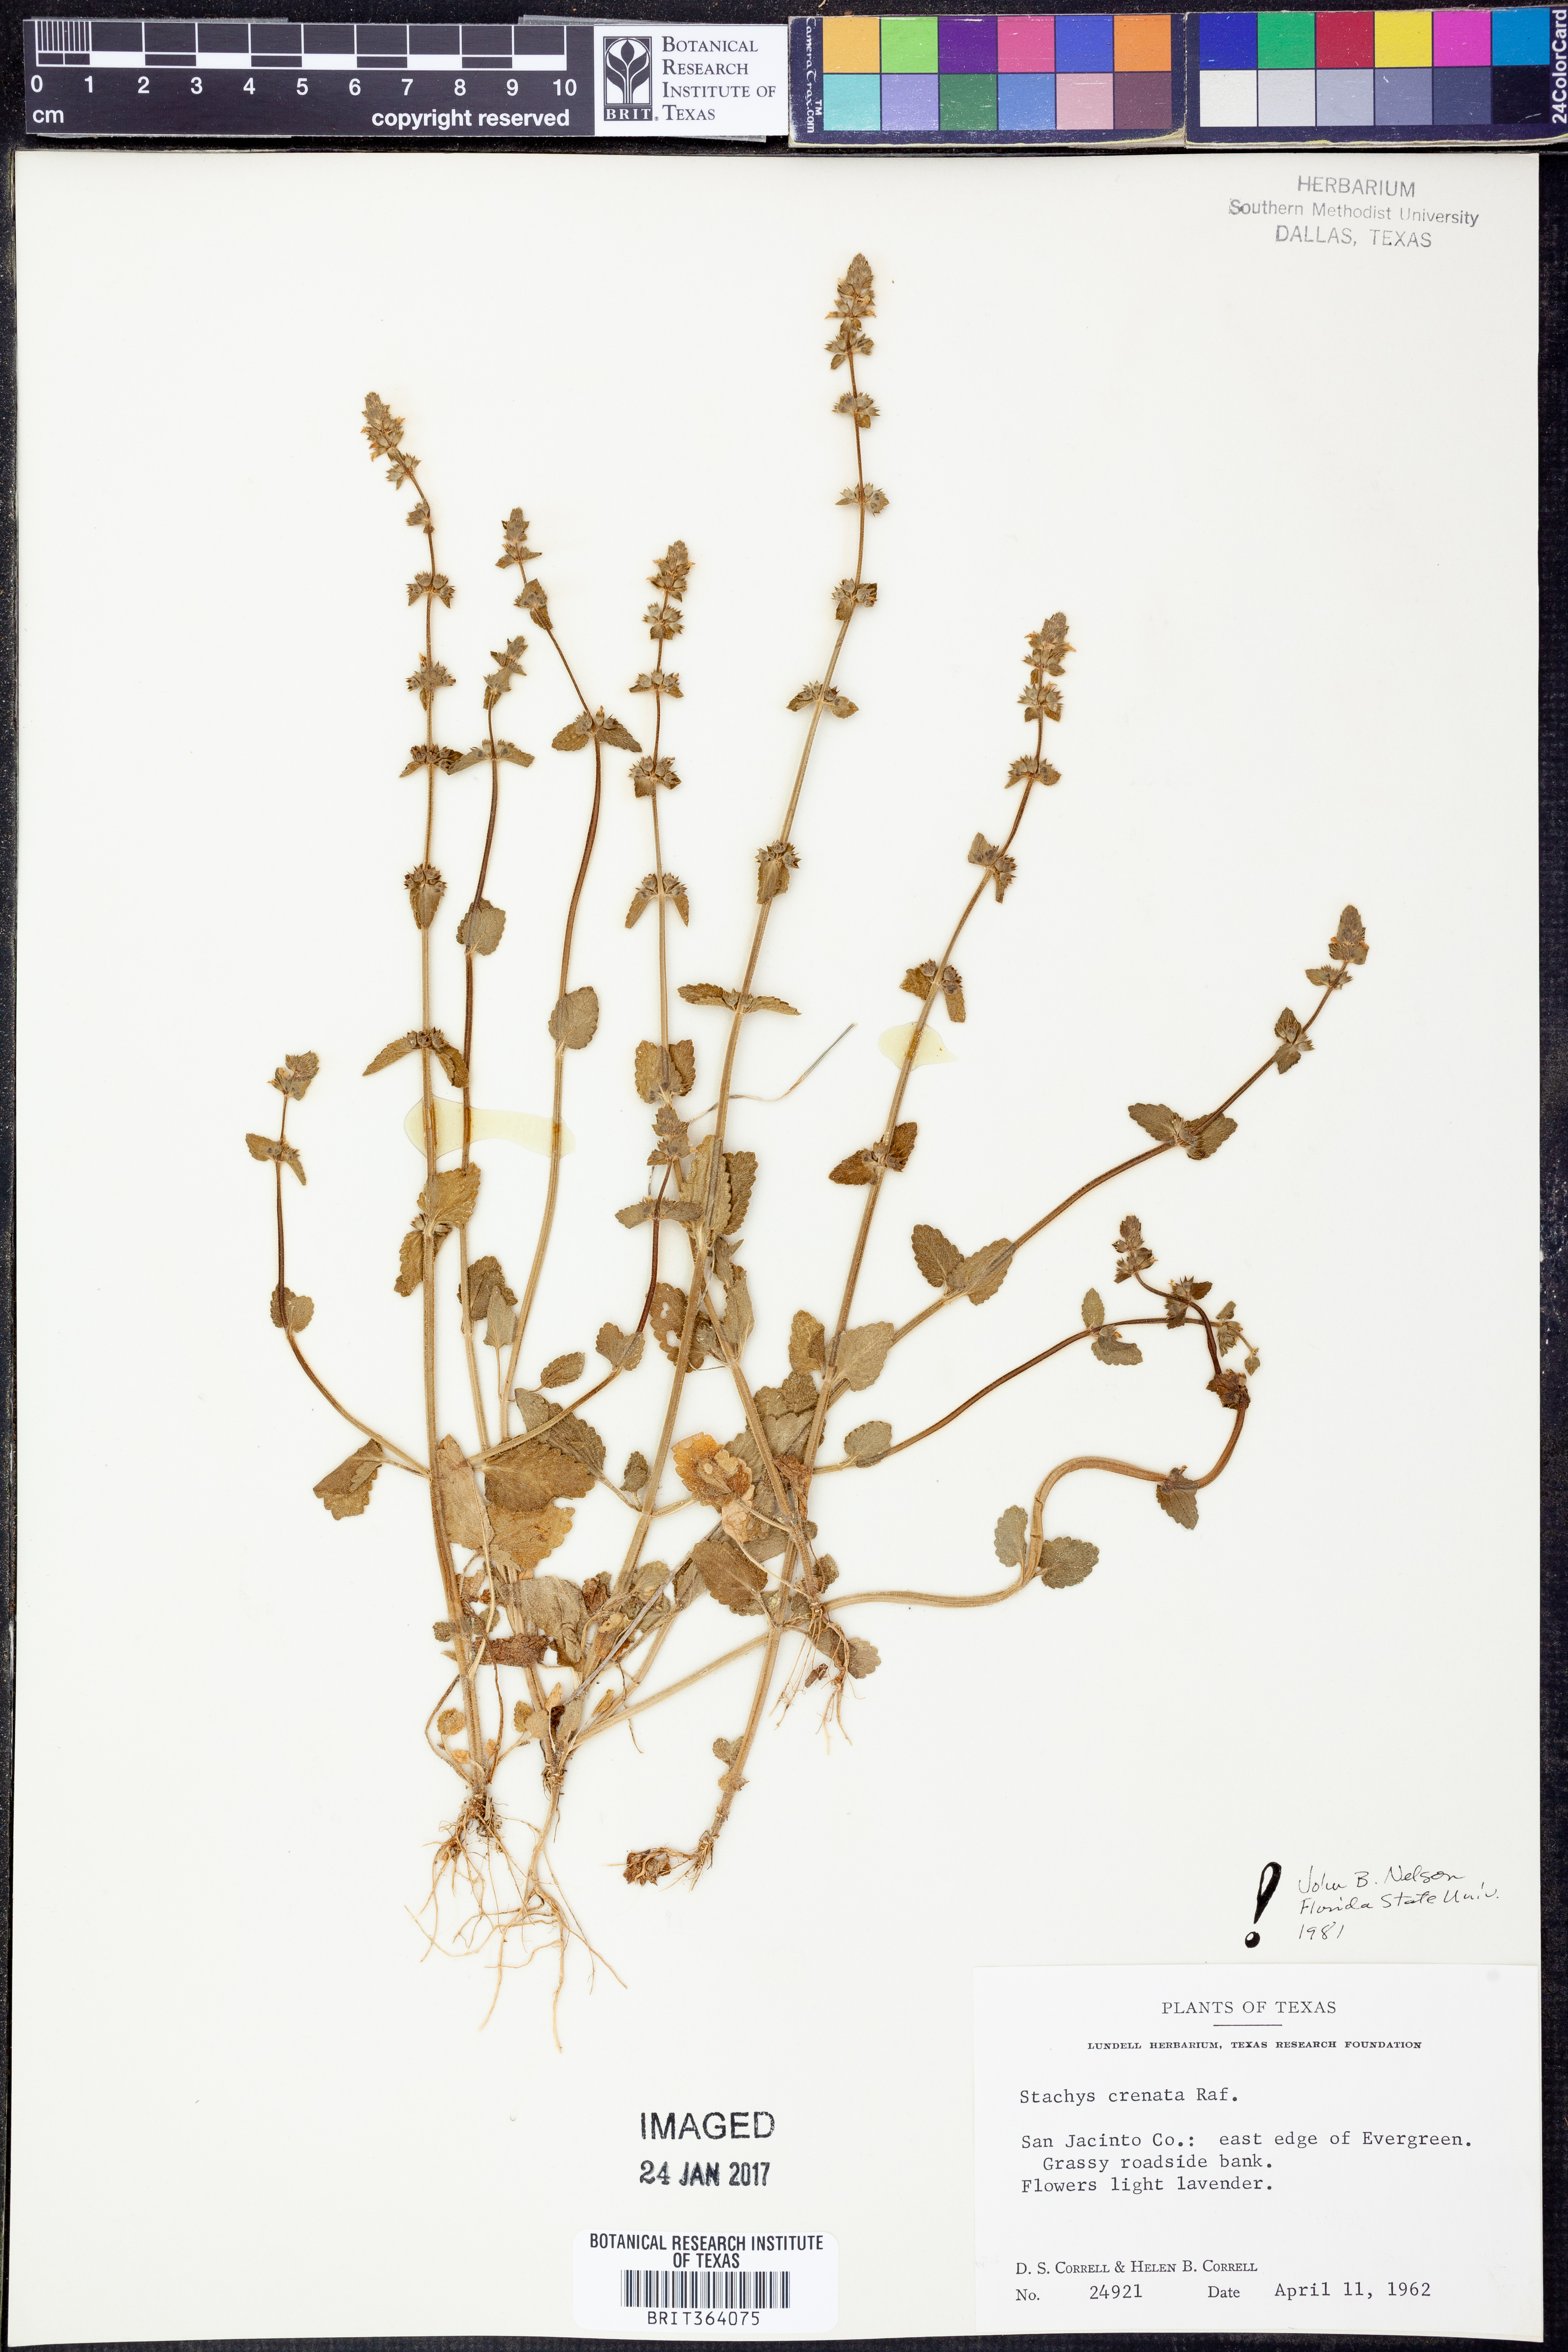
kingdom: Plantae
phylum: Tracheophyta
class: Magnoliopsida
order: Lamiales
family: Lamiaceae
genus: Stachys
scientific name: Stachys agraria
